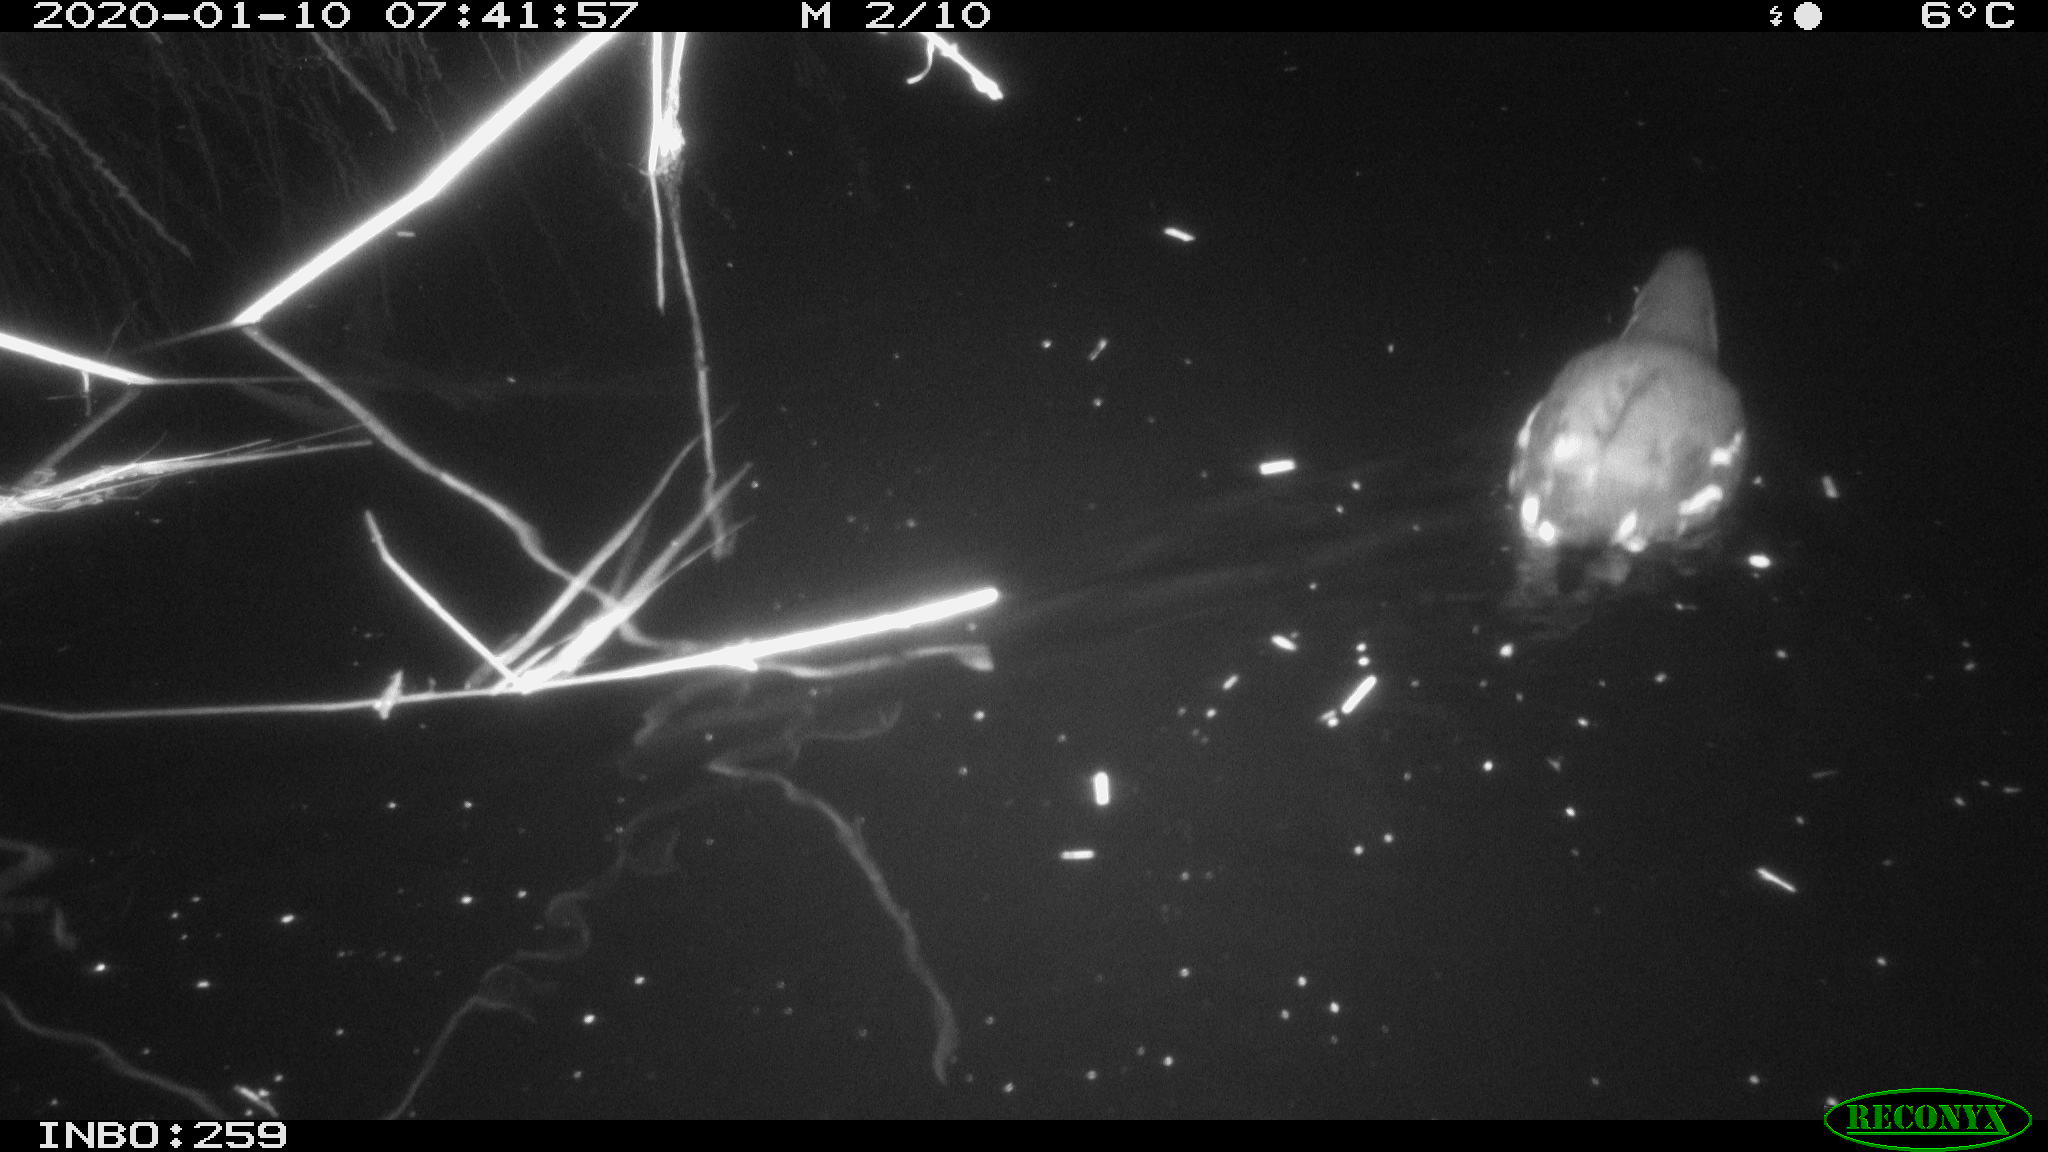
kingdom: Animalia
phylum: Chordata
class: Aves
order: Gruiformes
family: Rallidae
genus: Gallinula
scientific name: Gallinula chloropus
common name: Common moorhen
